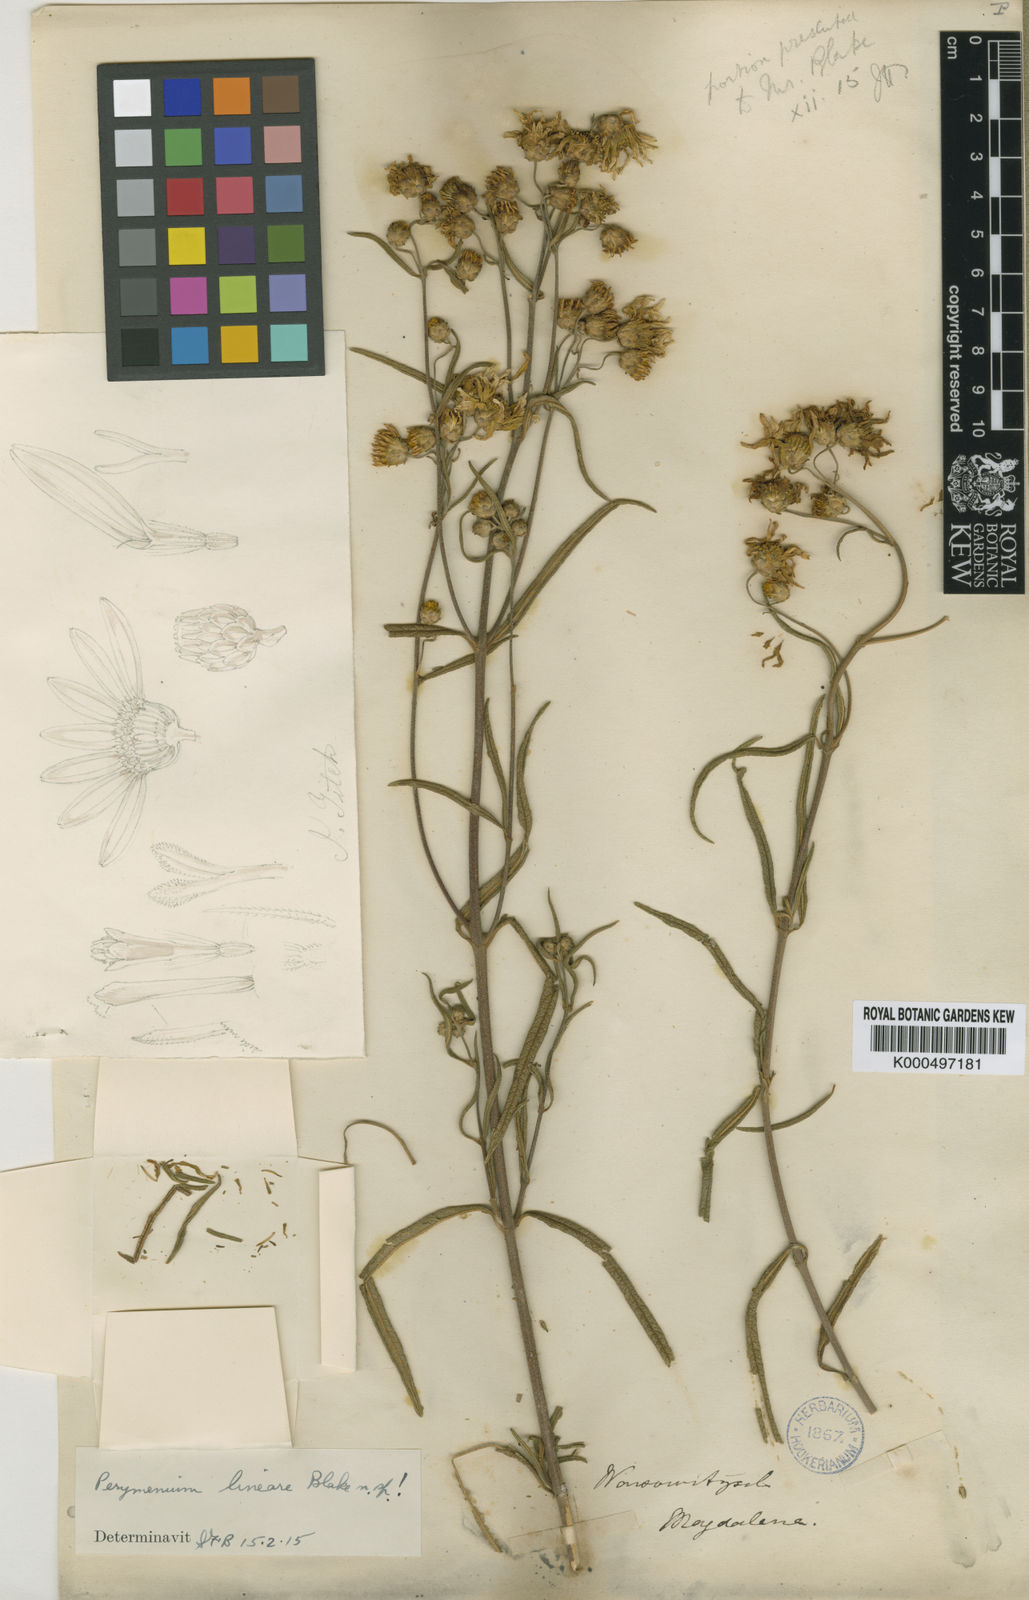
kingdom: Plantae
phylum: Tracheophyta
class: Magnoliopsida
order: Asterales
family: Asteraceae
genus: Perymenium
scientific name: Perymenium colombianum
